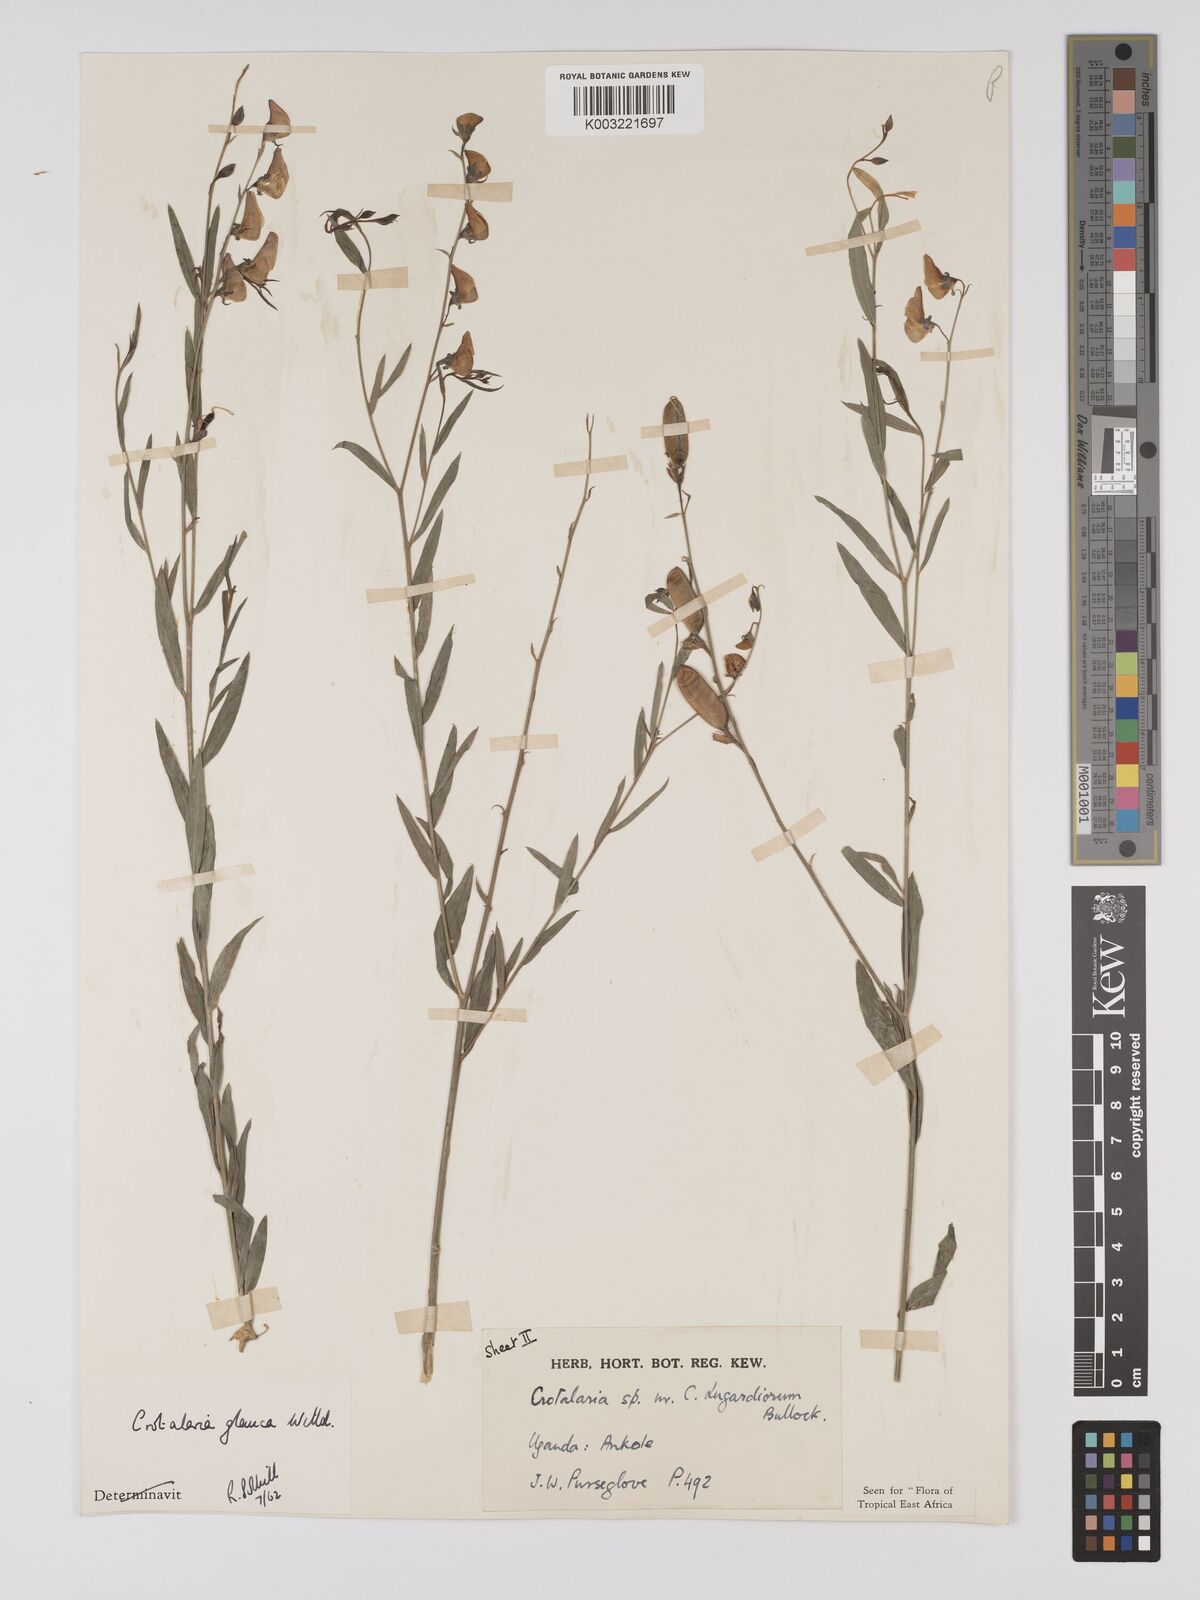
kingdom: Plantae
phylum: Tracheophyta
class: Magnoliopsida
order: Fabales
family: Fabaceae
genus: Crotalaria
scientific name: Crotalaria glauca
